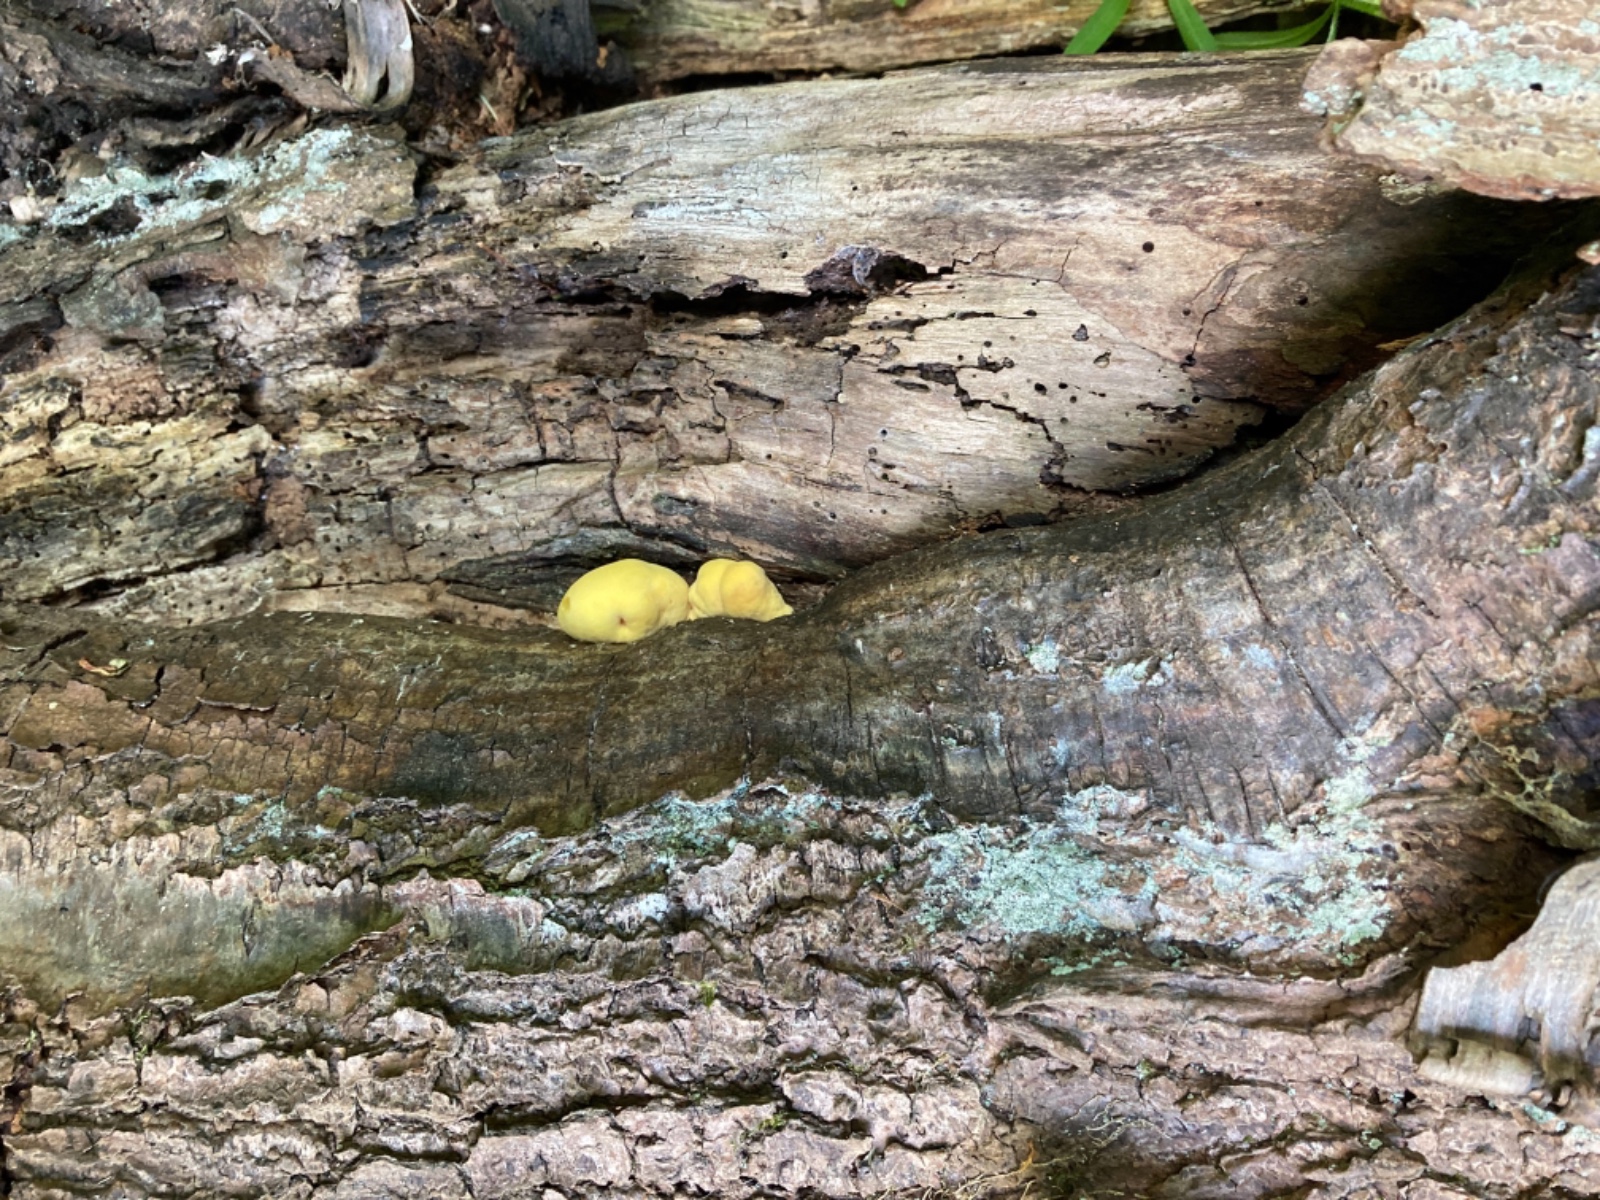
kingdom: Fungi
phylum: Basidiomycota
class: Agaricomycetes
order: Polyporales
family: Laetiporaceae
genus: Laetiporus
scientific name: Laetiporus sulphureus
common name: svovlporesvamp
